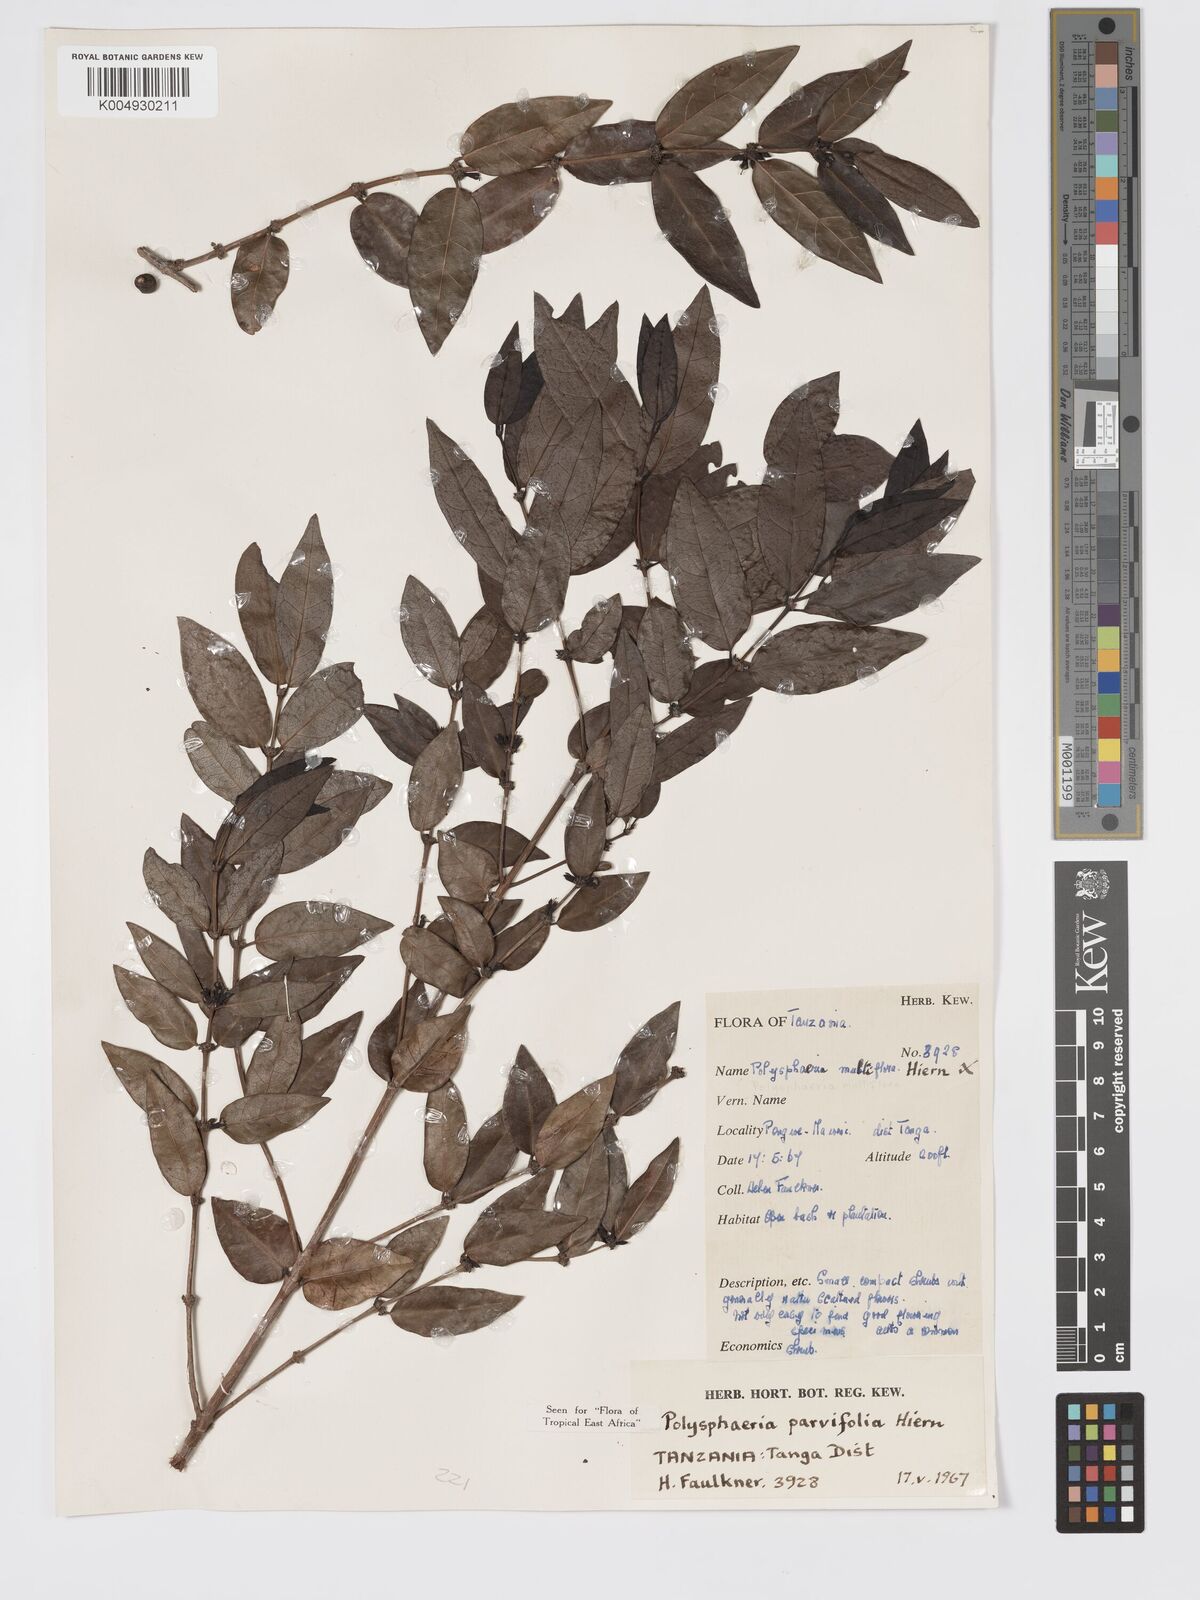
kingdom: Plantae
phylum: Tracheophyta
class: Magnoliopsida
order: Gentianales
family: Rubiaceae
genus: Polysphaeria
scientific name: Polysphaeria parvifolia
